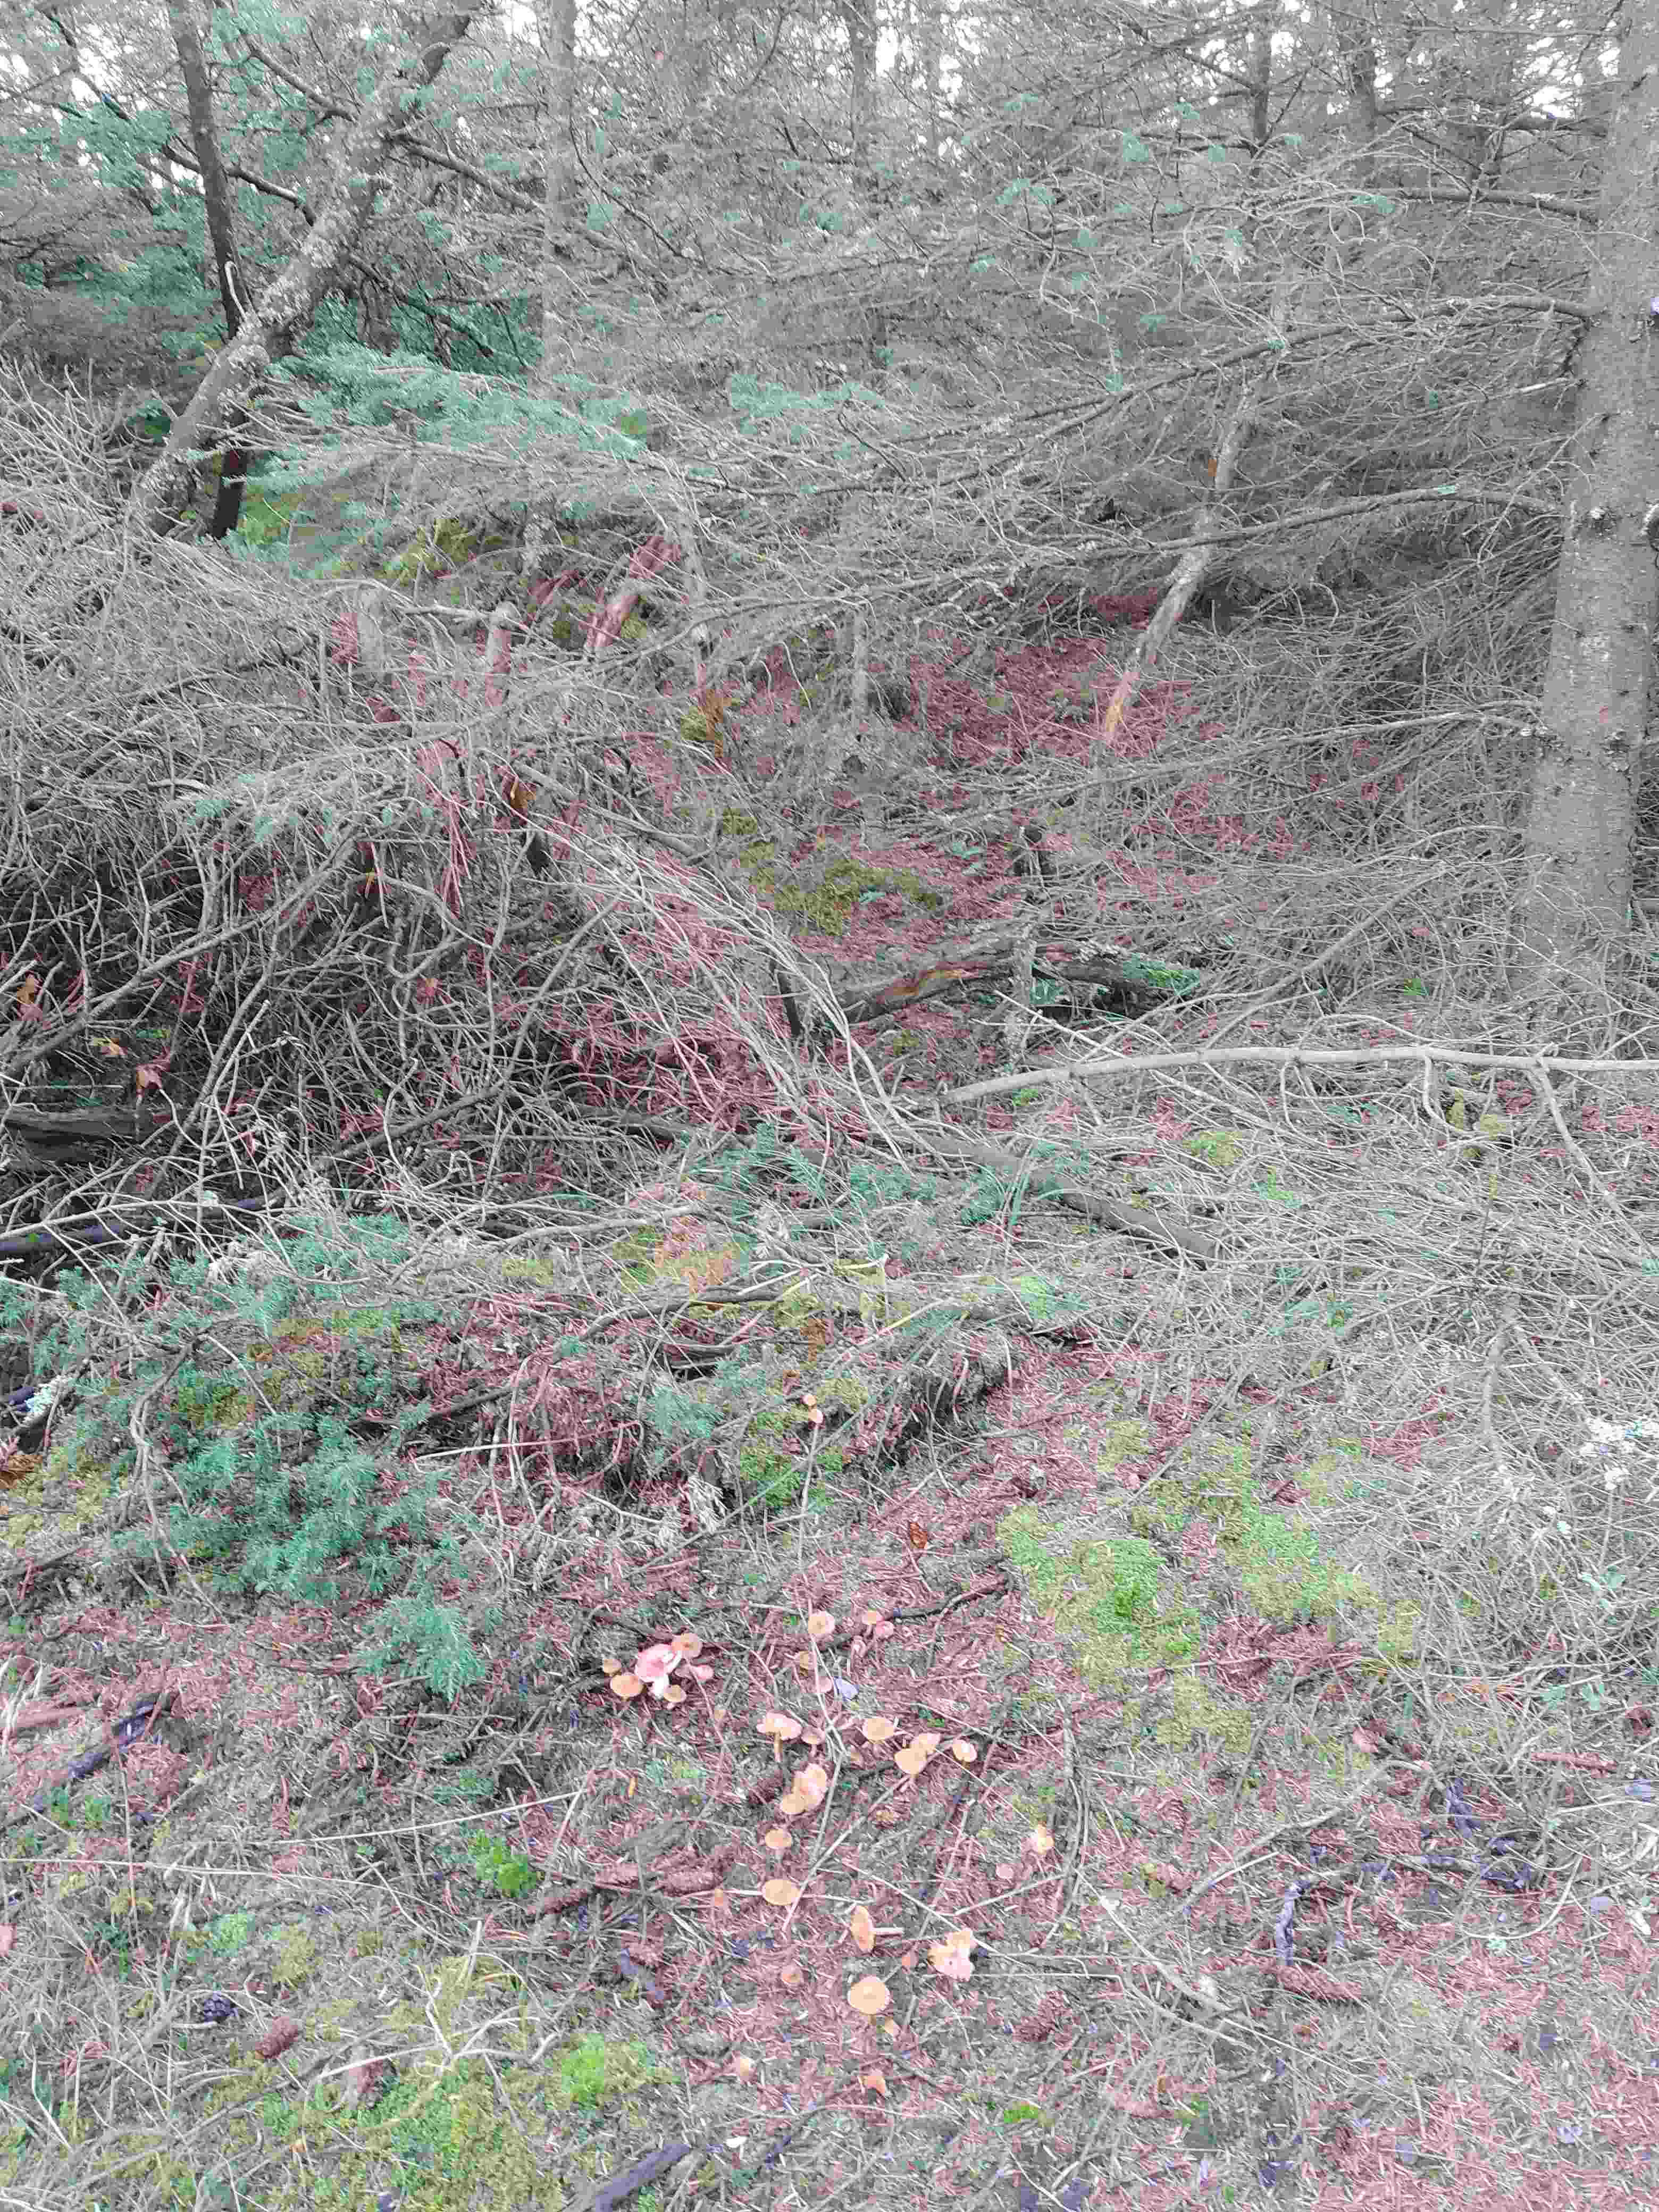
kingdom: Fungi
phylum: Basidiomycota
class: Agaricomycetes
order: Agaricales
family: Cortinariaceae
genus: Cortinarius
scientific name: Cortinarius
